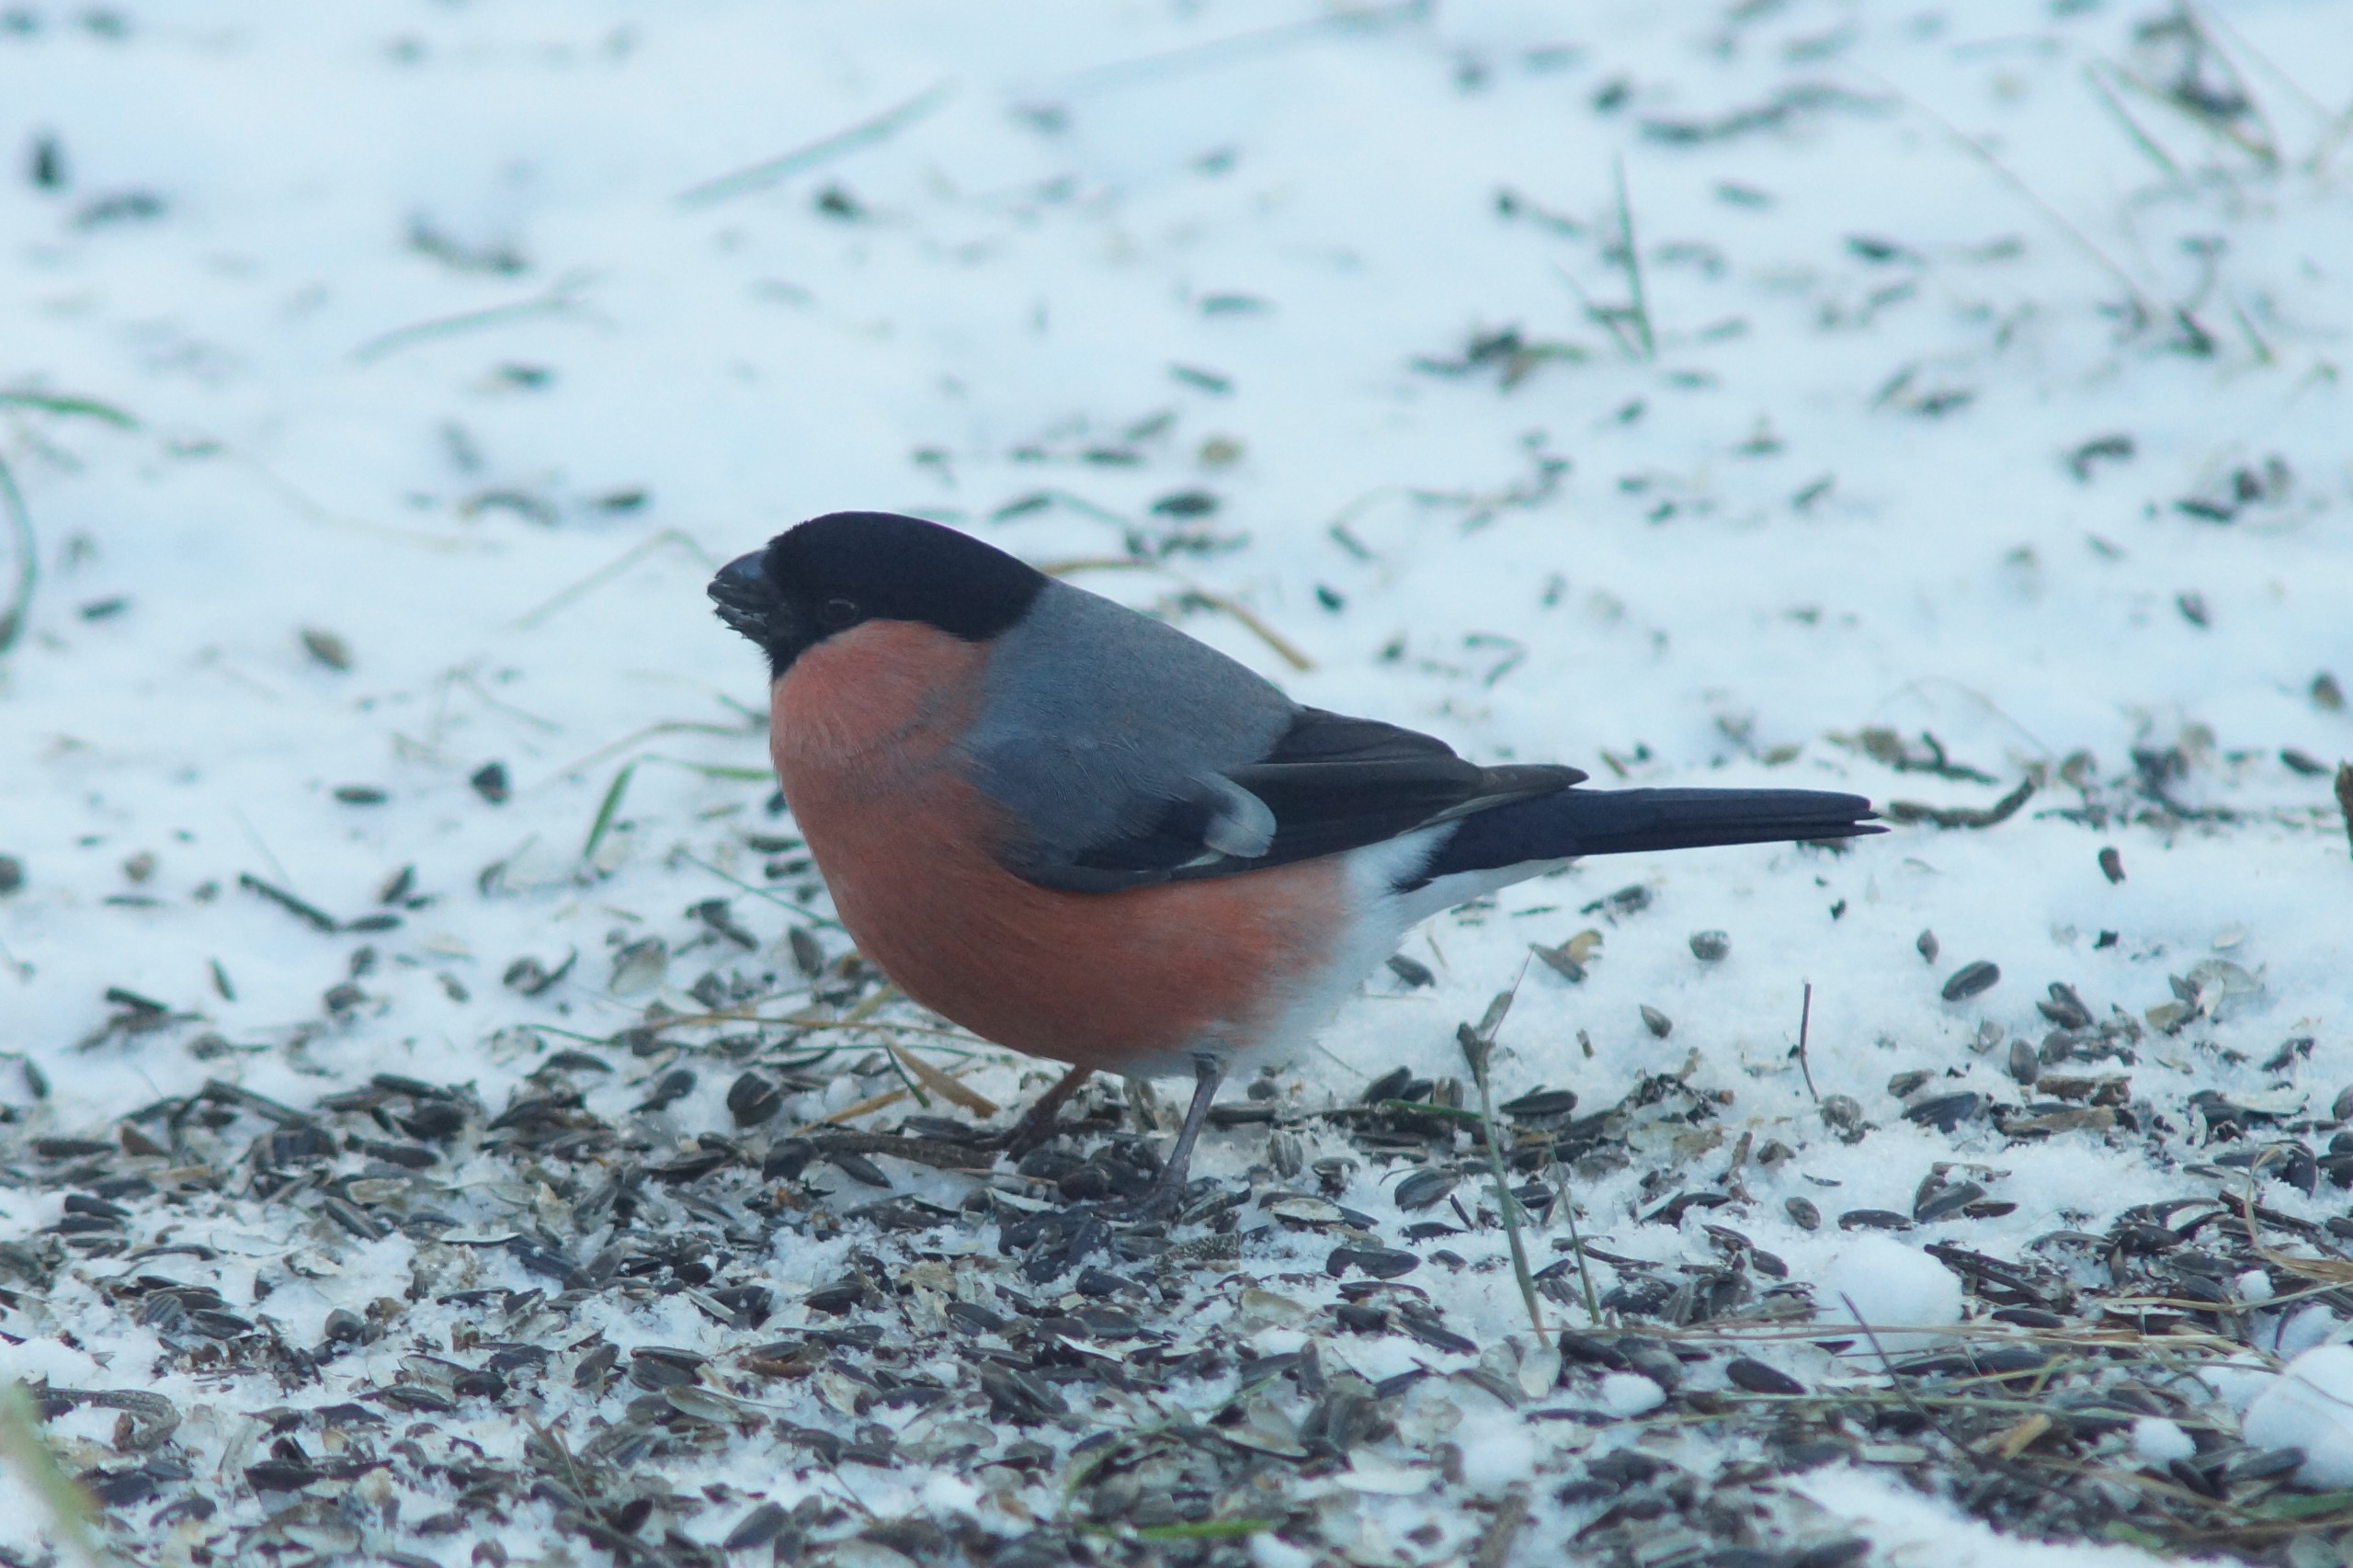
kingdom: Animalia
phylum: Chordata
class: Aves
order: Passeriformes
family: Fringillidae
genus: Pyrrhula
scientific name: Pyrrhula pyrrhula
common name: Dompap
